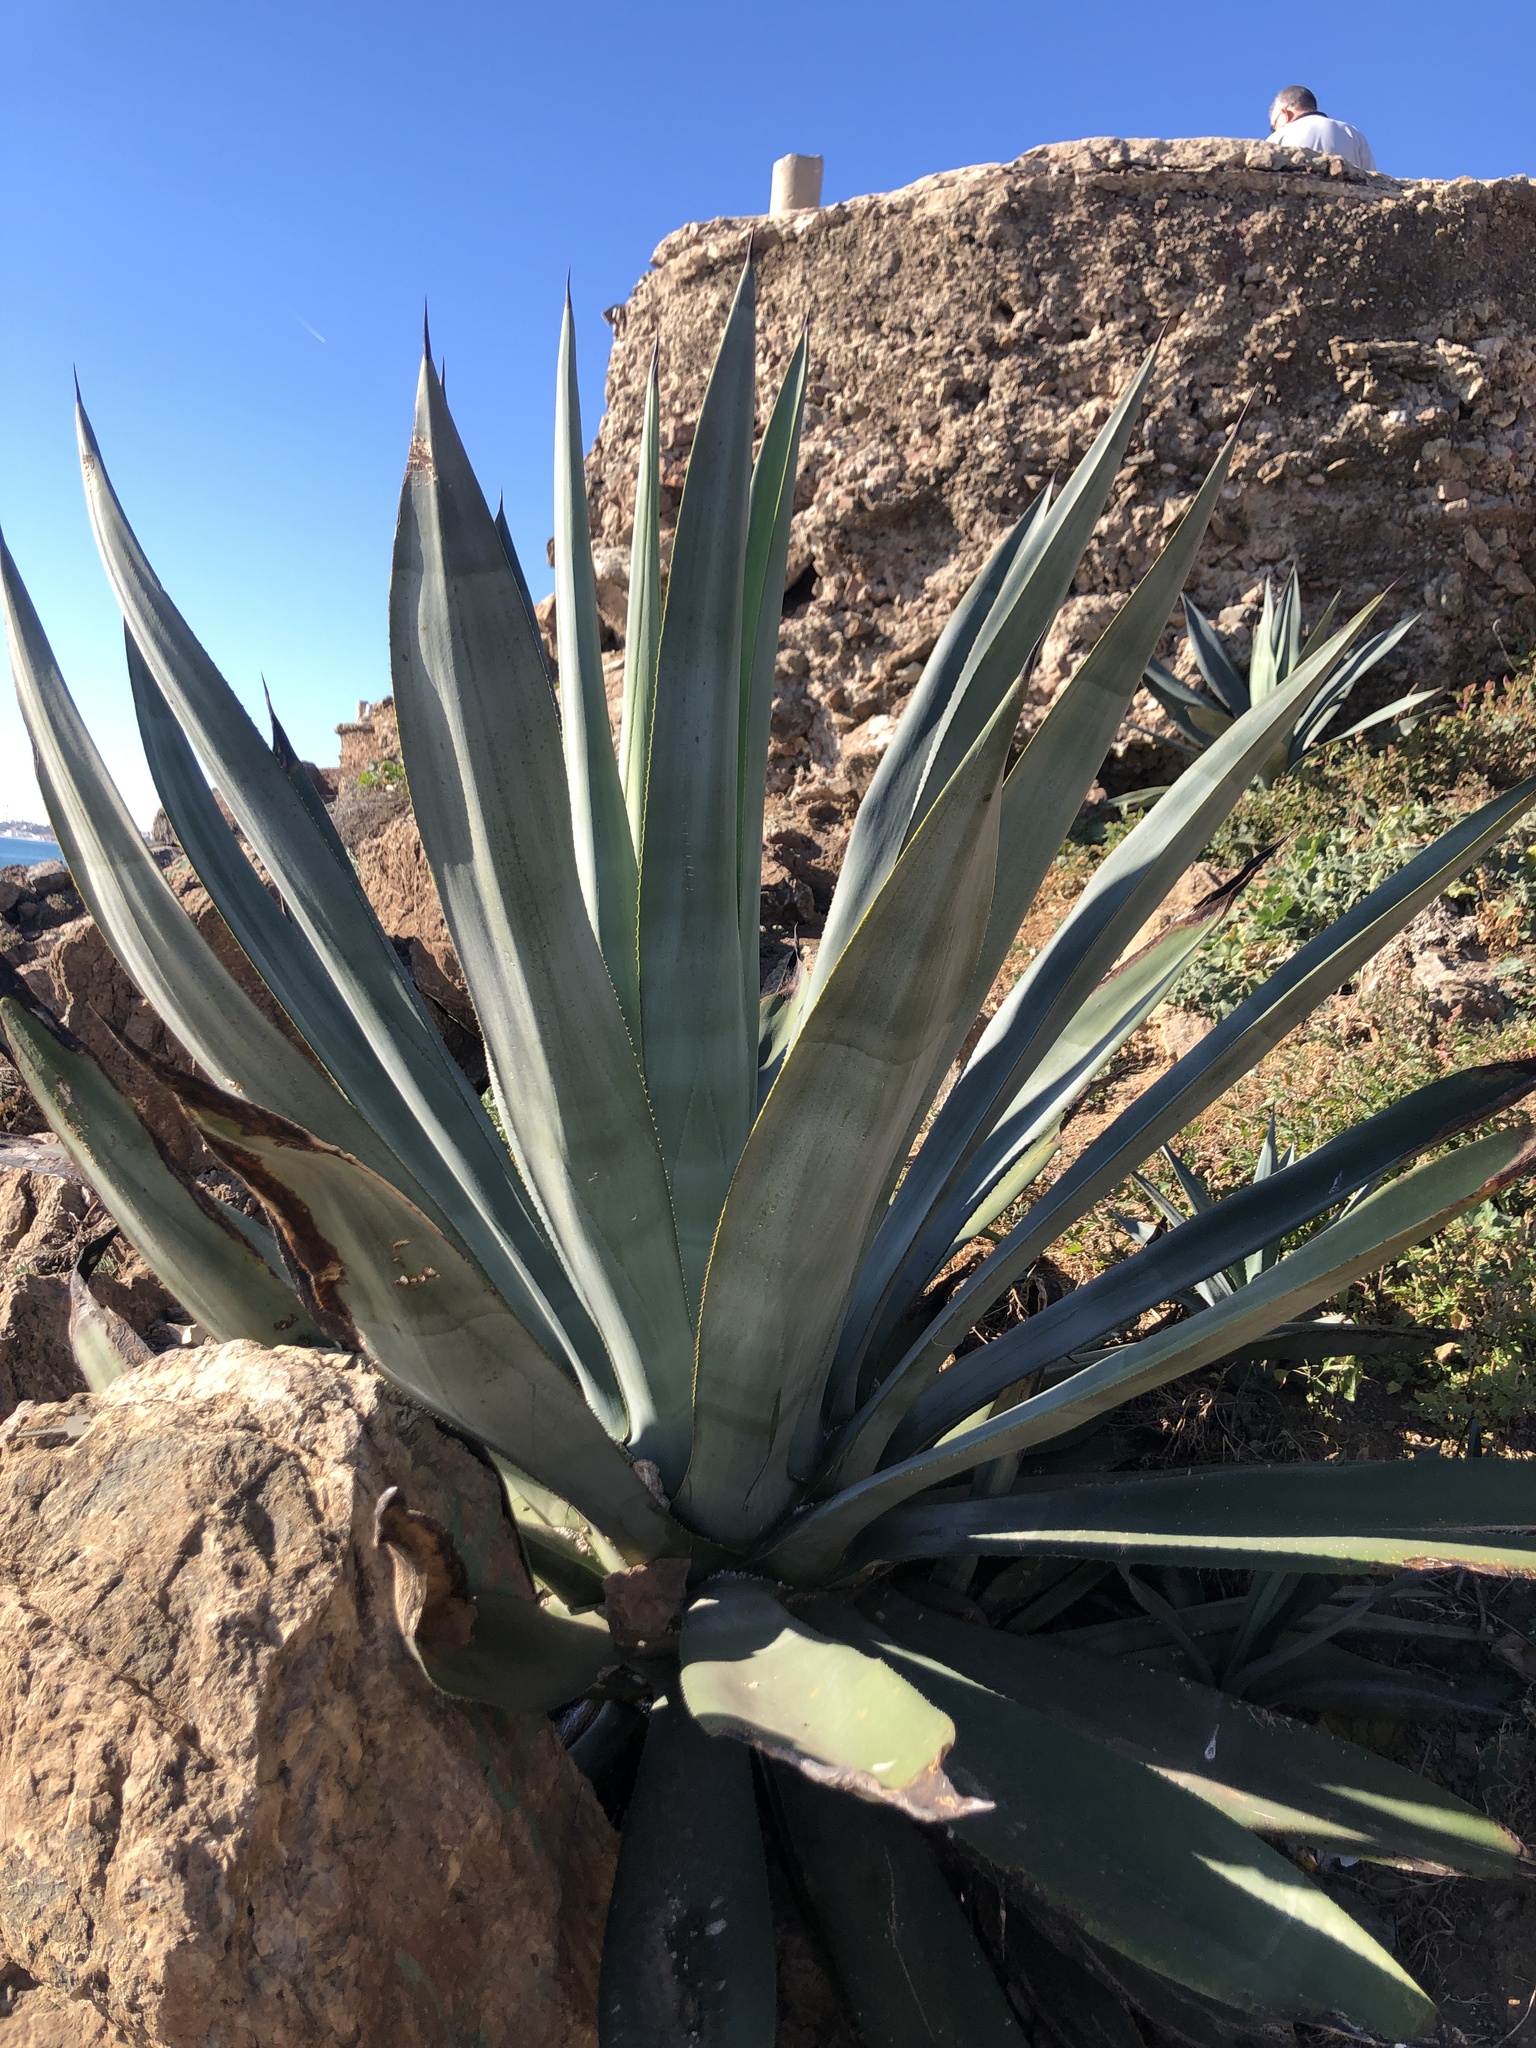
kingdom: Plantae
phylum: Tracheophyta
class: Liliopsida
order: Asparagales
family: Asparagaceae
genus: Agave
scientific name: Agave americana
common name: Centuryplant
